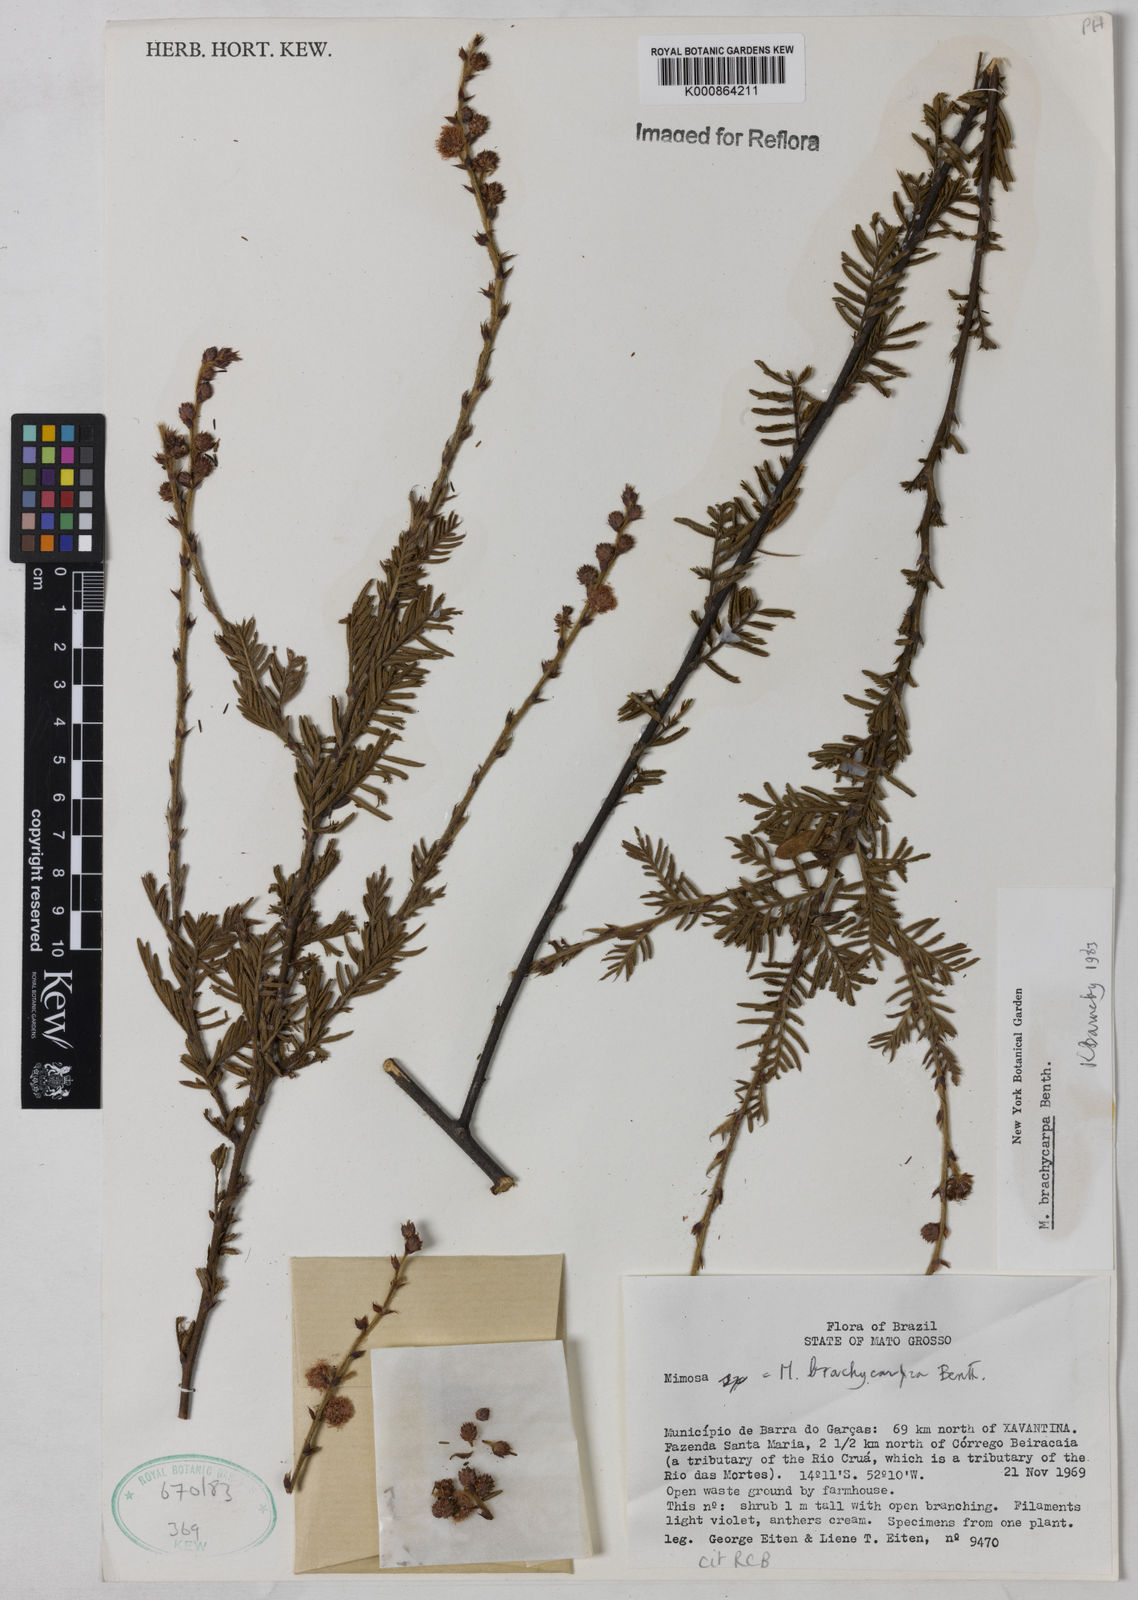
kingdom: Plantae
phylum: Tracheophyta
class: Magnoliopsida
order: Fabales
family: Fabaceae
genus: Mimosa
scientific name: Mimosa brachycarpa
